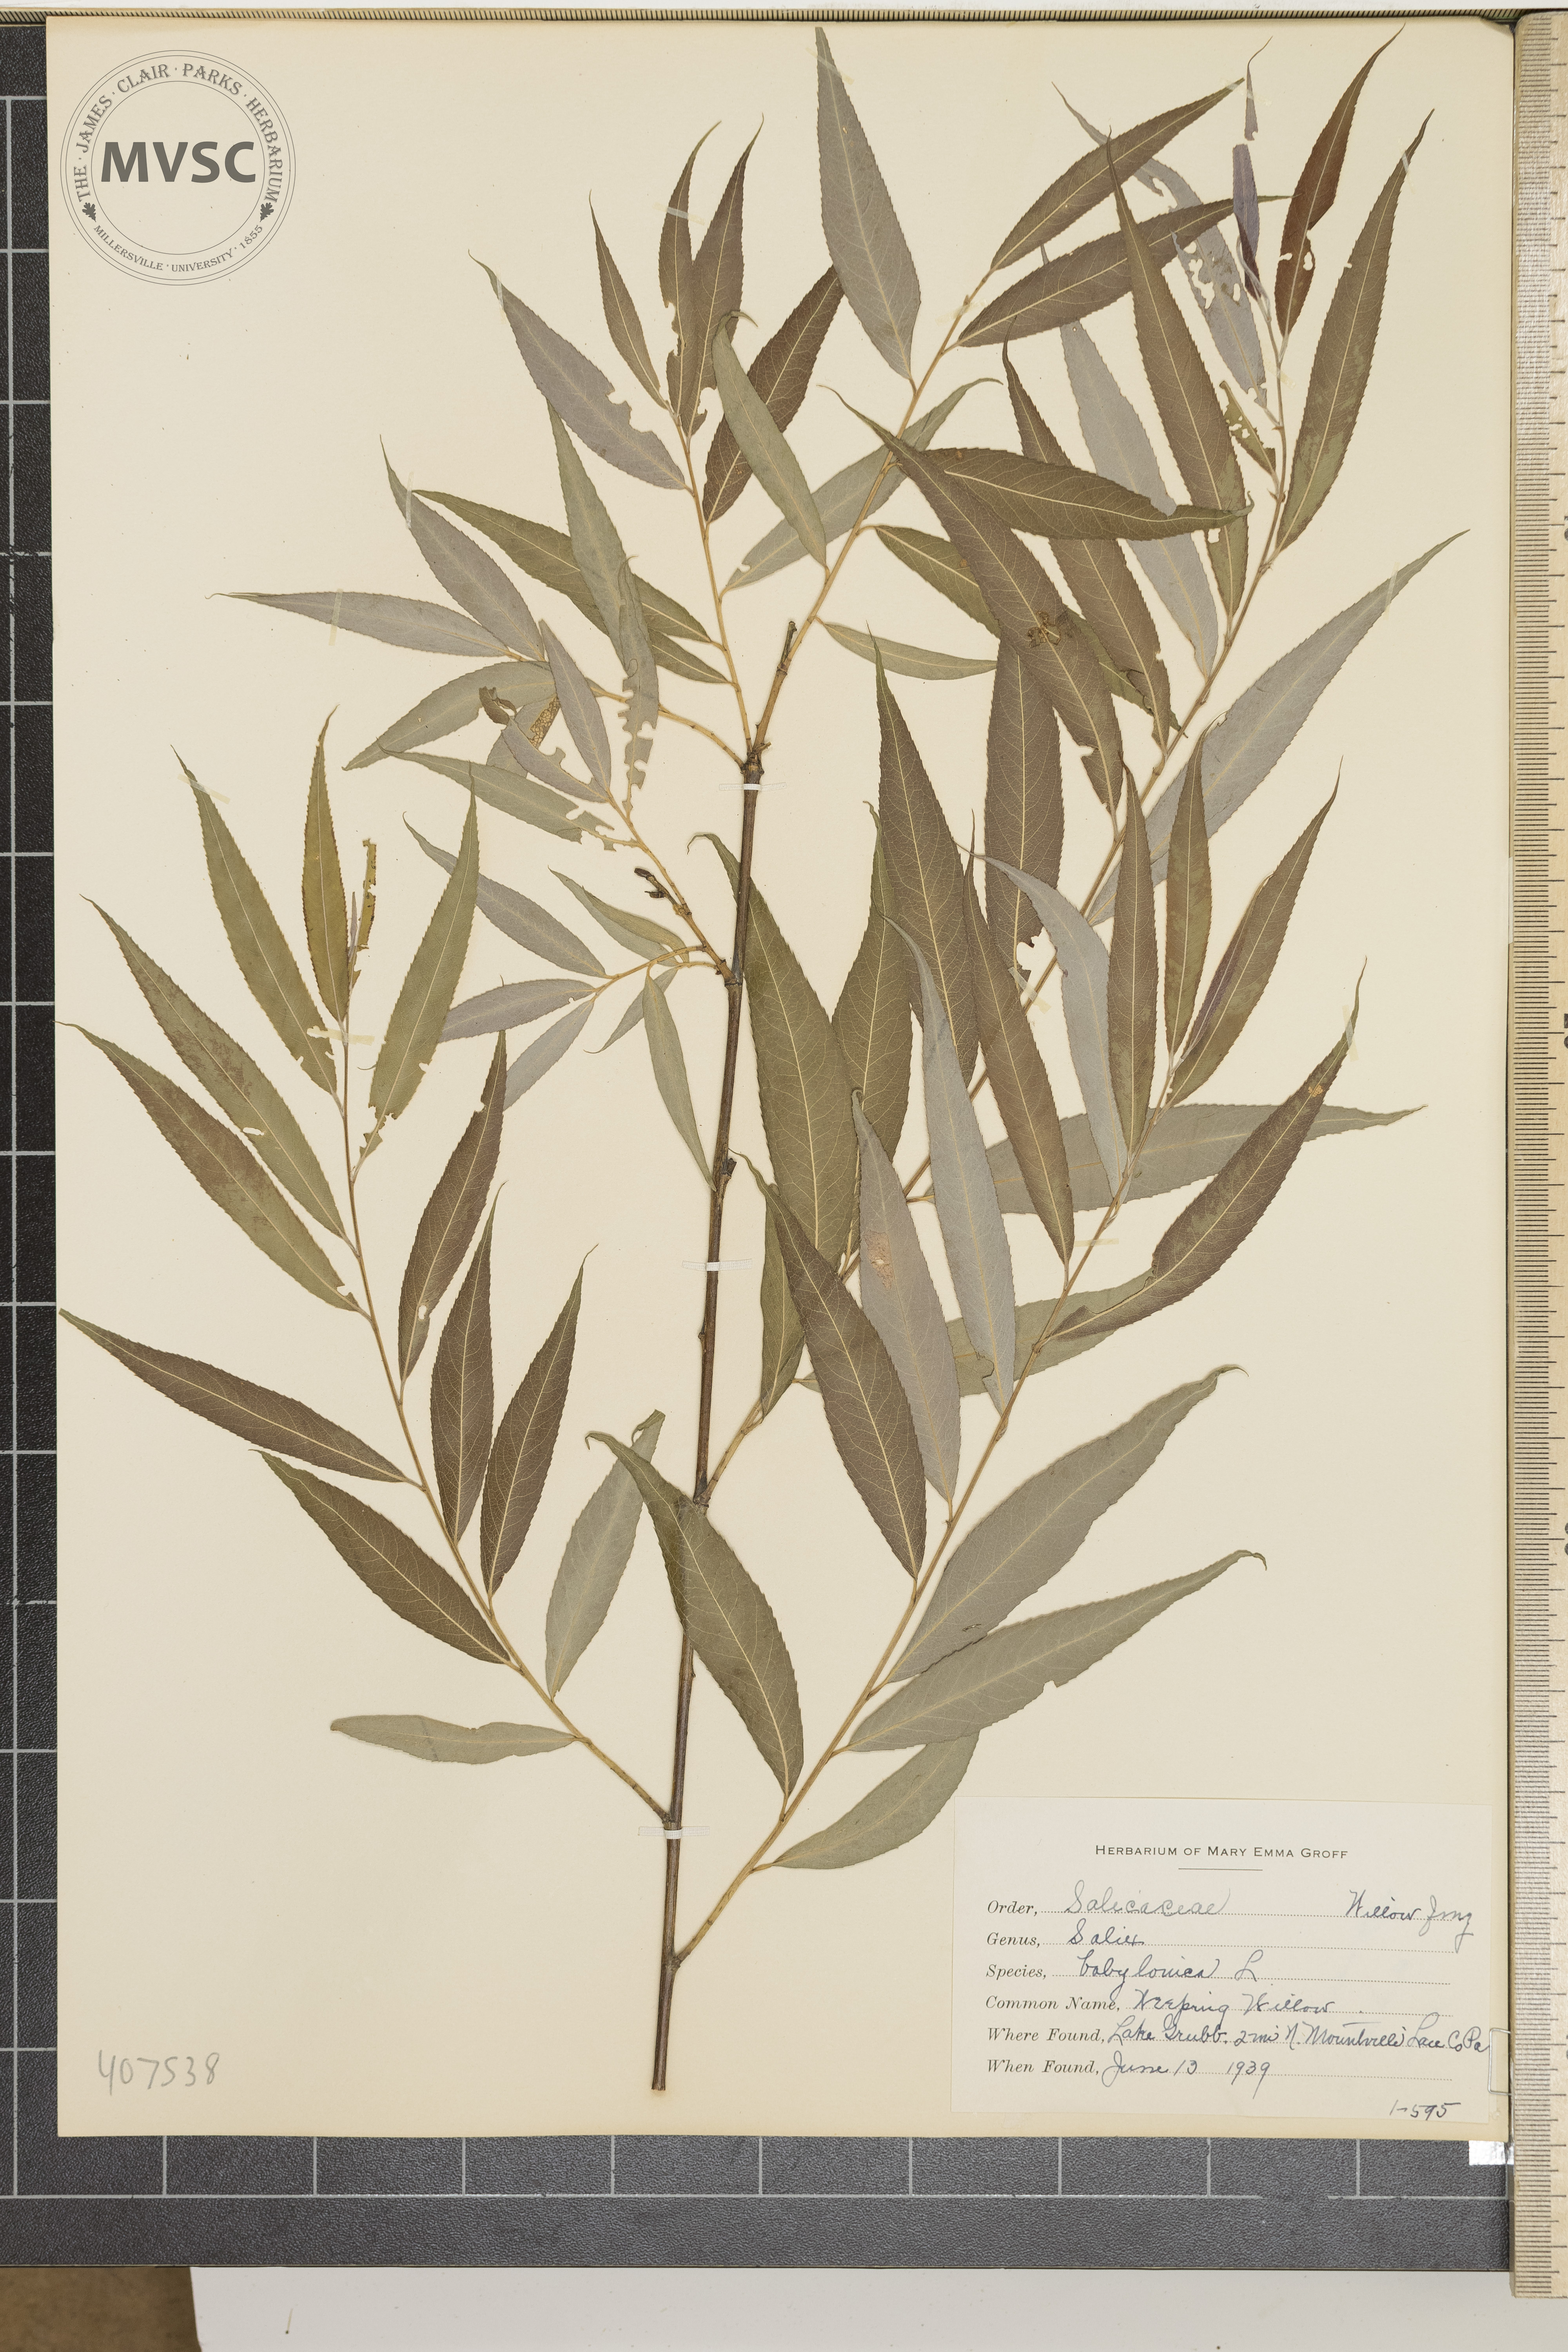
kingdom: Plantae
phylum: Tracheophyta
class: Magnoliopsida
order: Malpighiales
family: Salicaceae
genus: Salix
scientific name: Salix babylonica
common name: Weeping Willow
